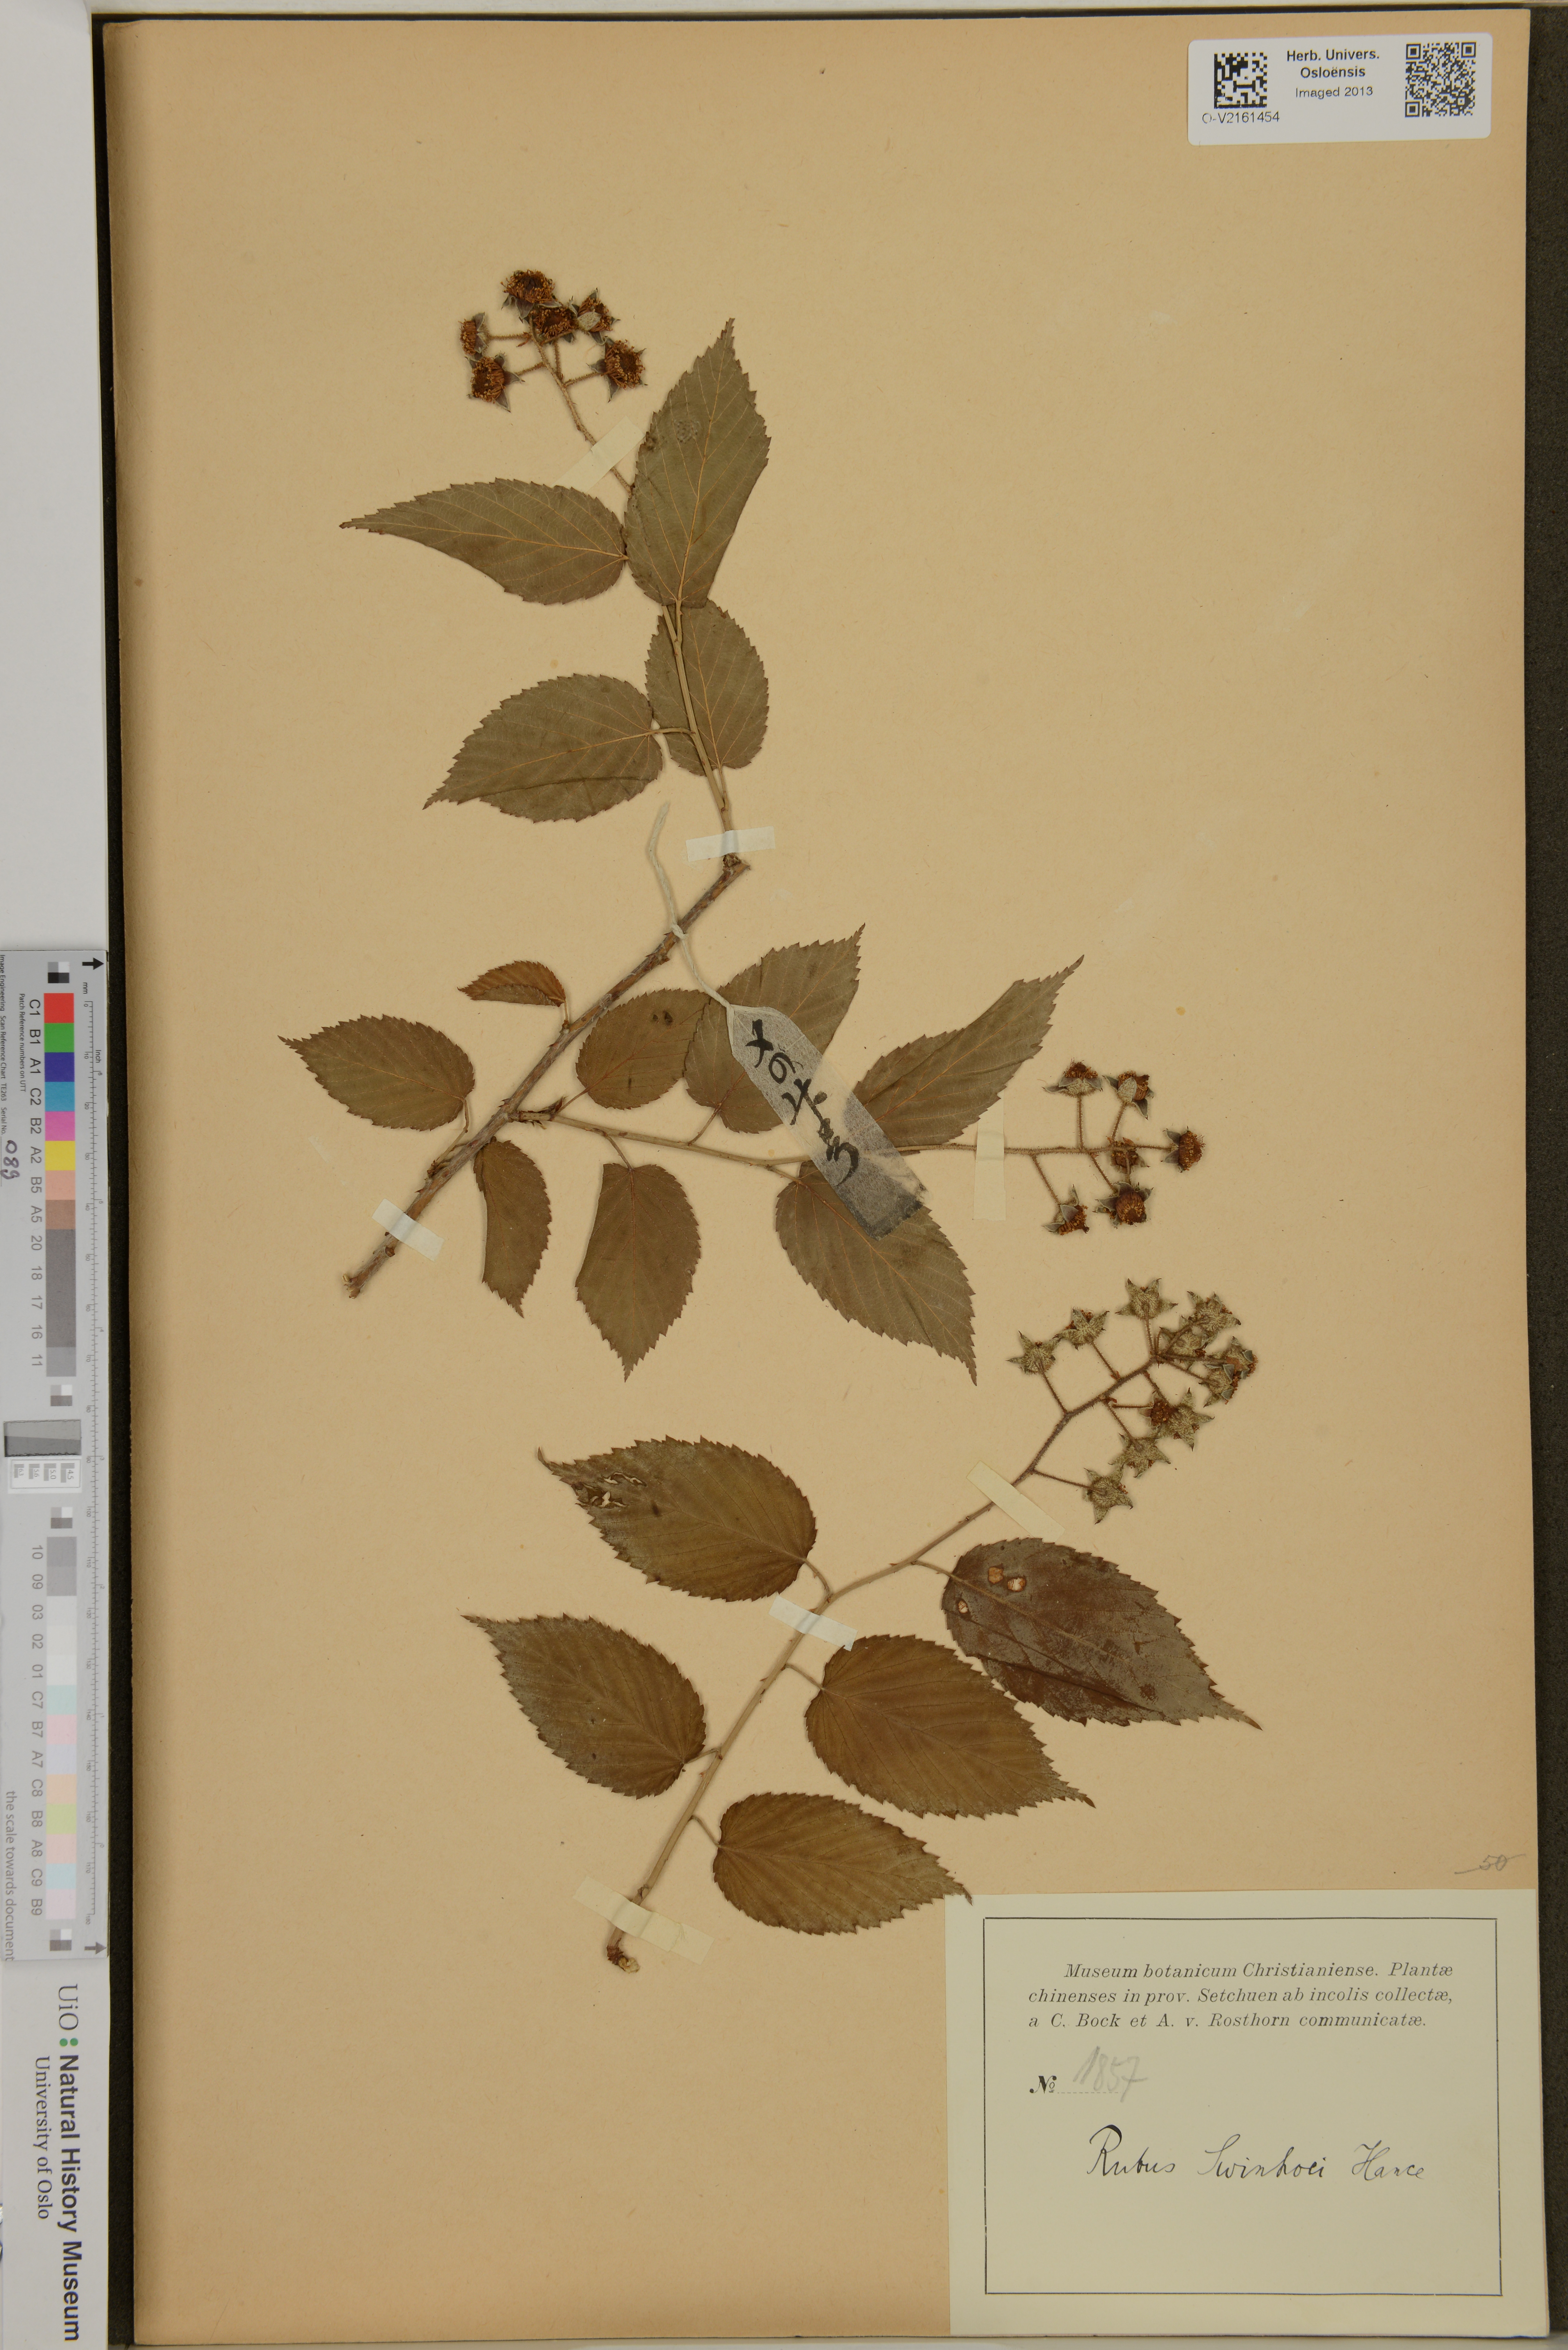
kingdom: Plantae
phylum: Tracheophyta
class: Magnoliopsida
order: Rosales
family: Rosaceae
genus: Rubus
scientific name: Rubus swinhoei
